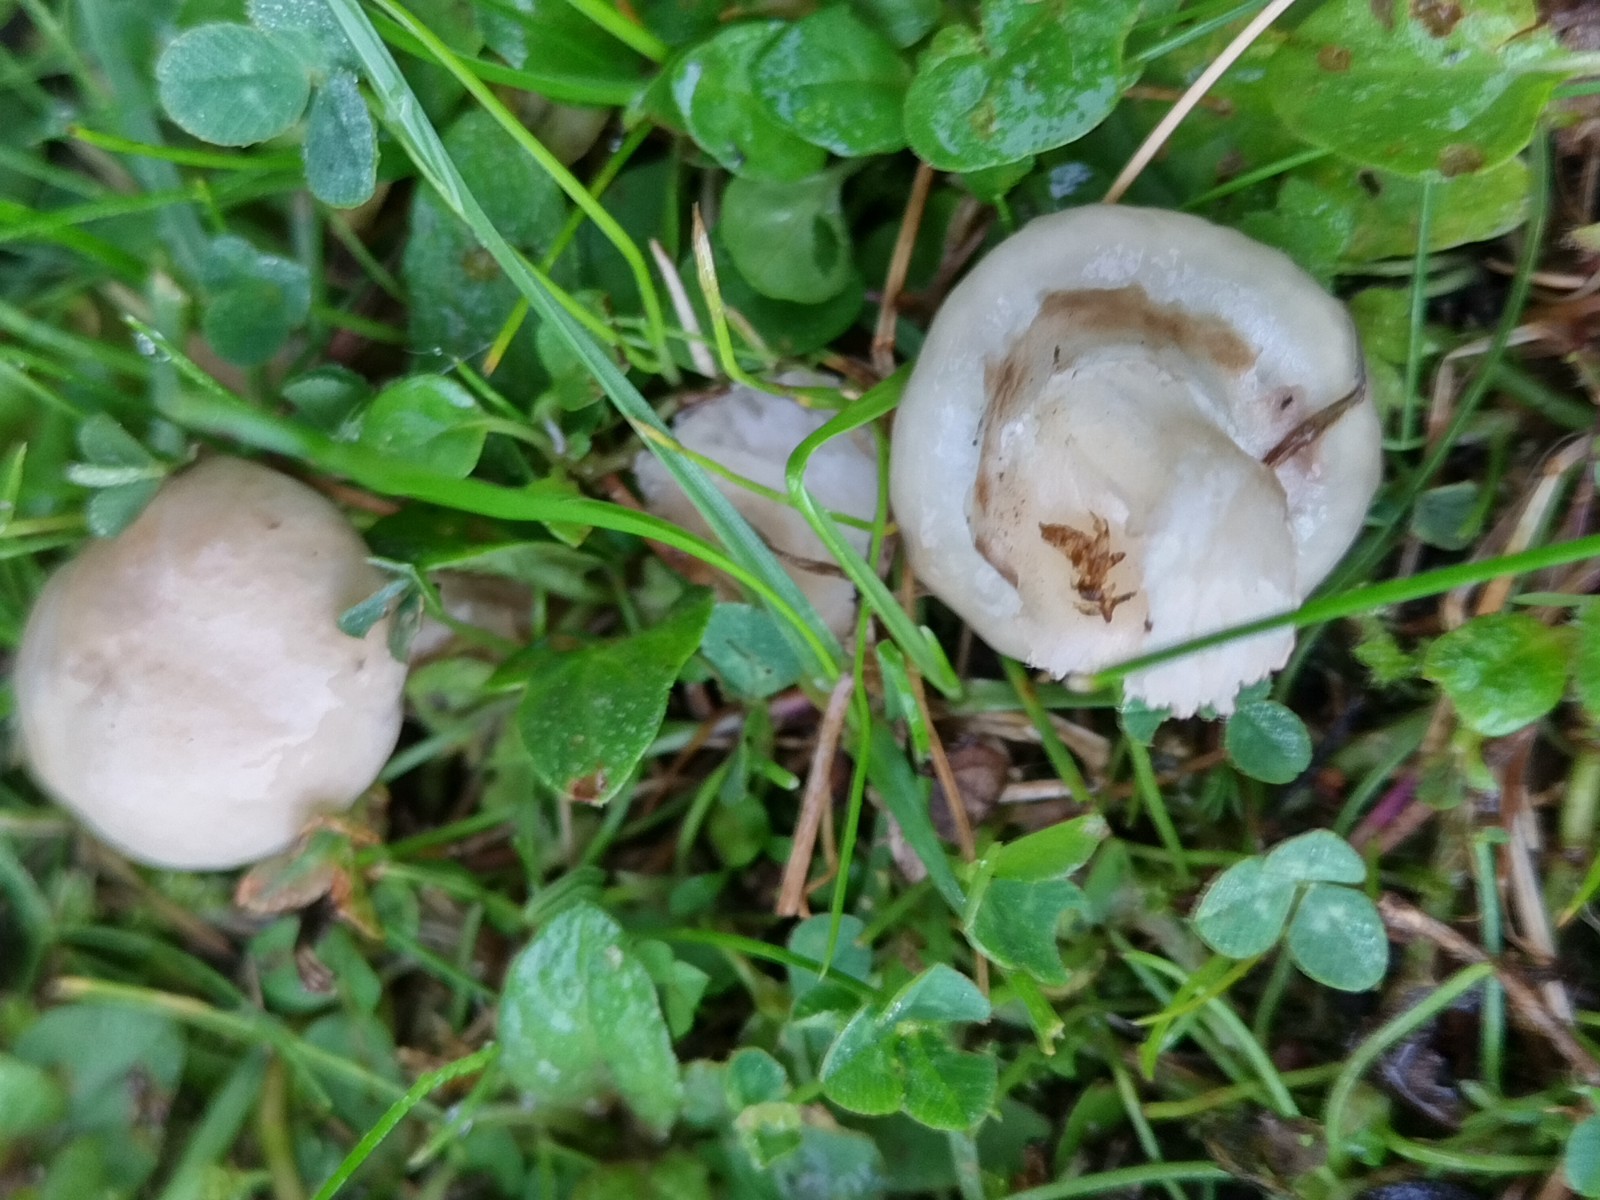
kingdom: Fungi
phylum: Basidiomycota
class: Agaricomycetes
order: Boletales
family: Suillaceae
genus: Suillus
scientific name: Suillus viscidus
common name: olivengrå slimrørhat
